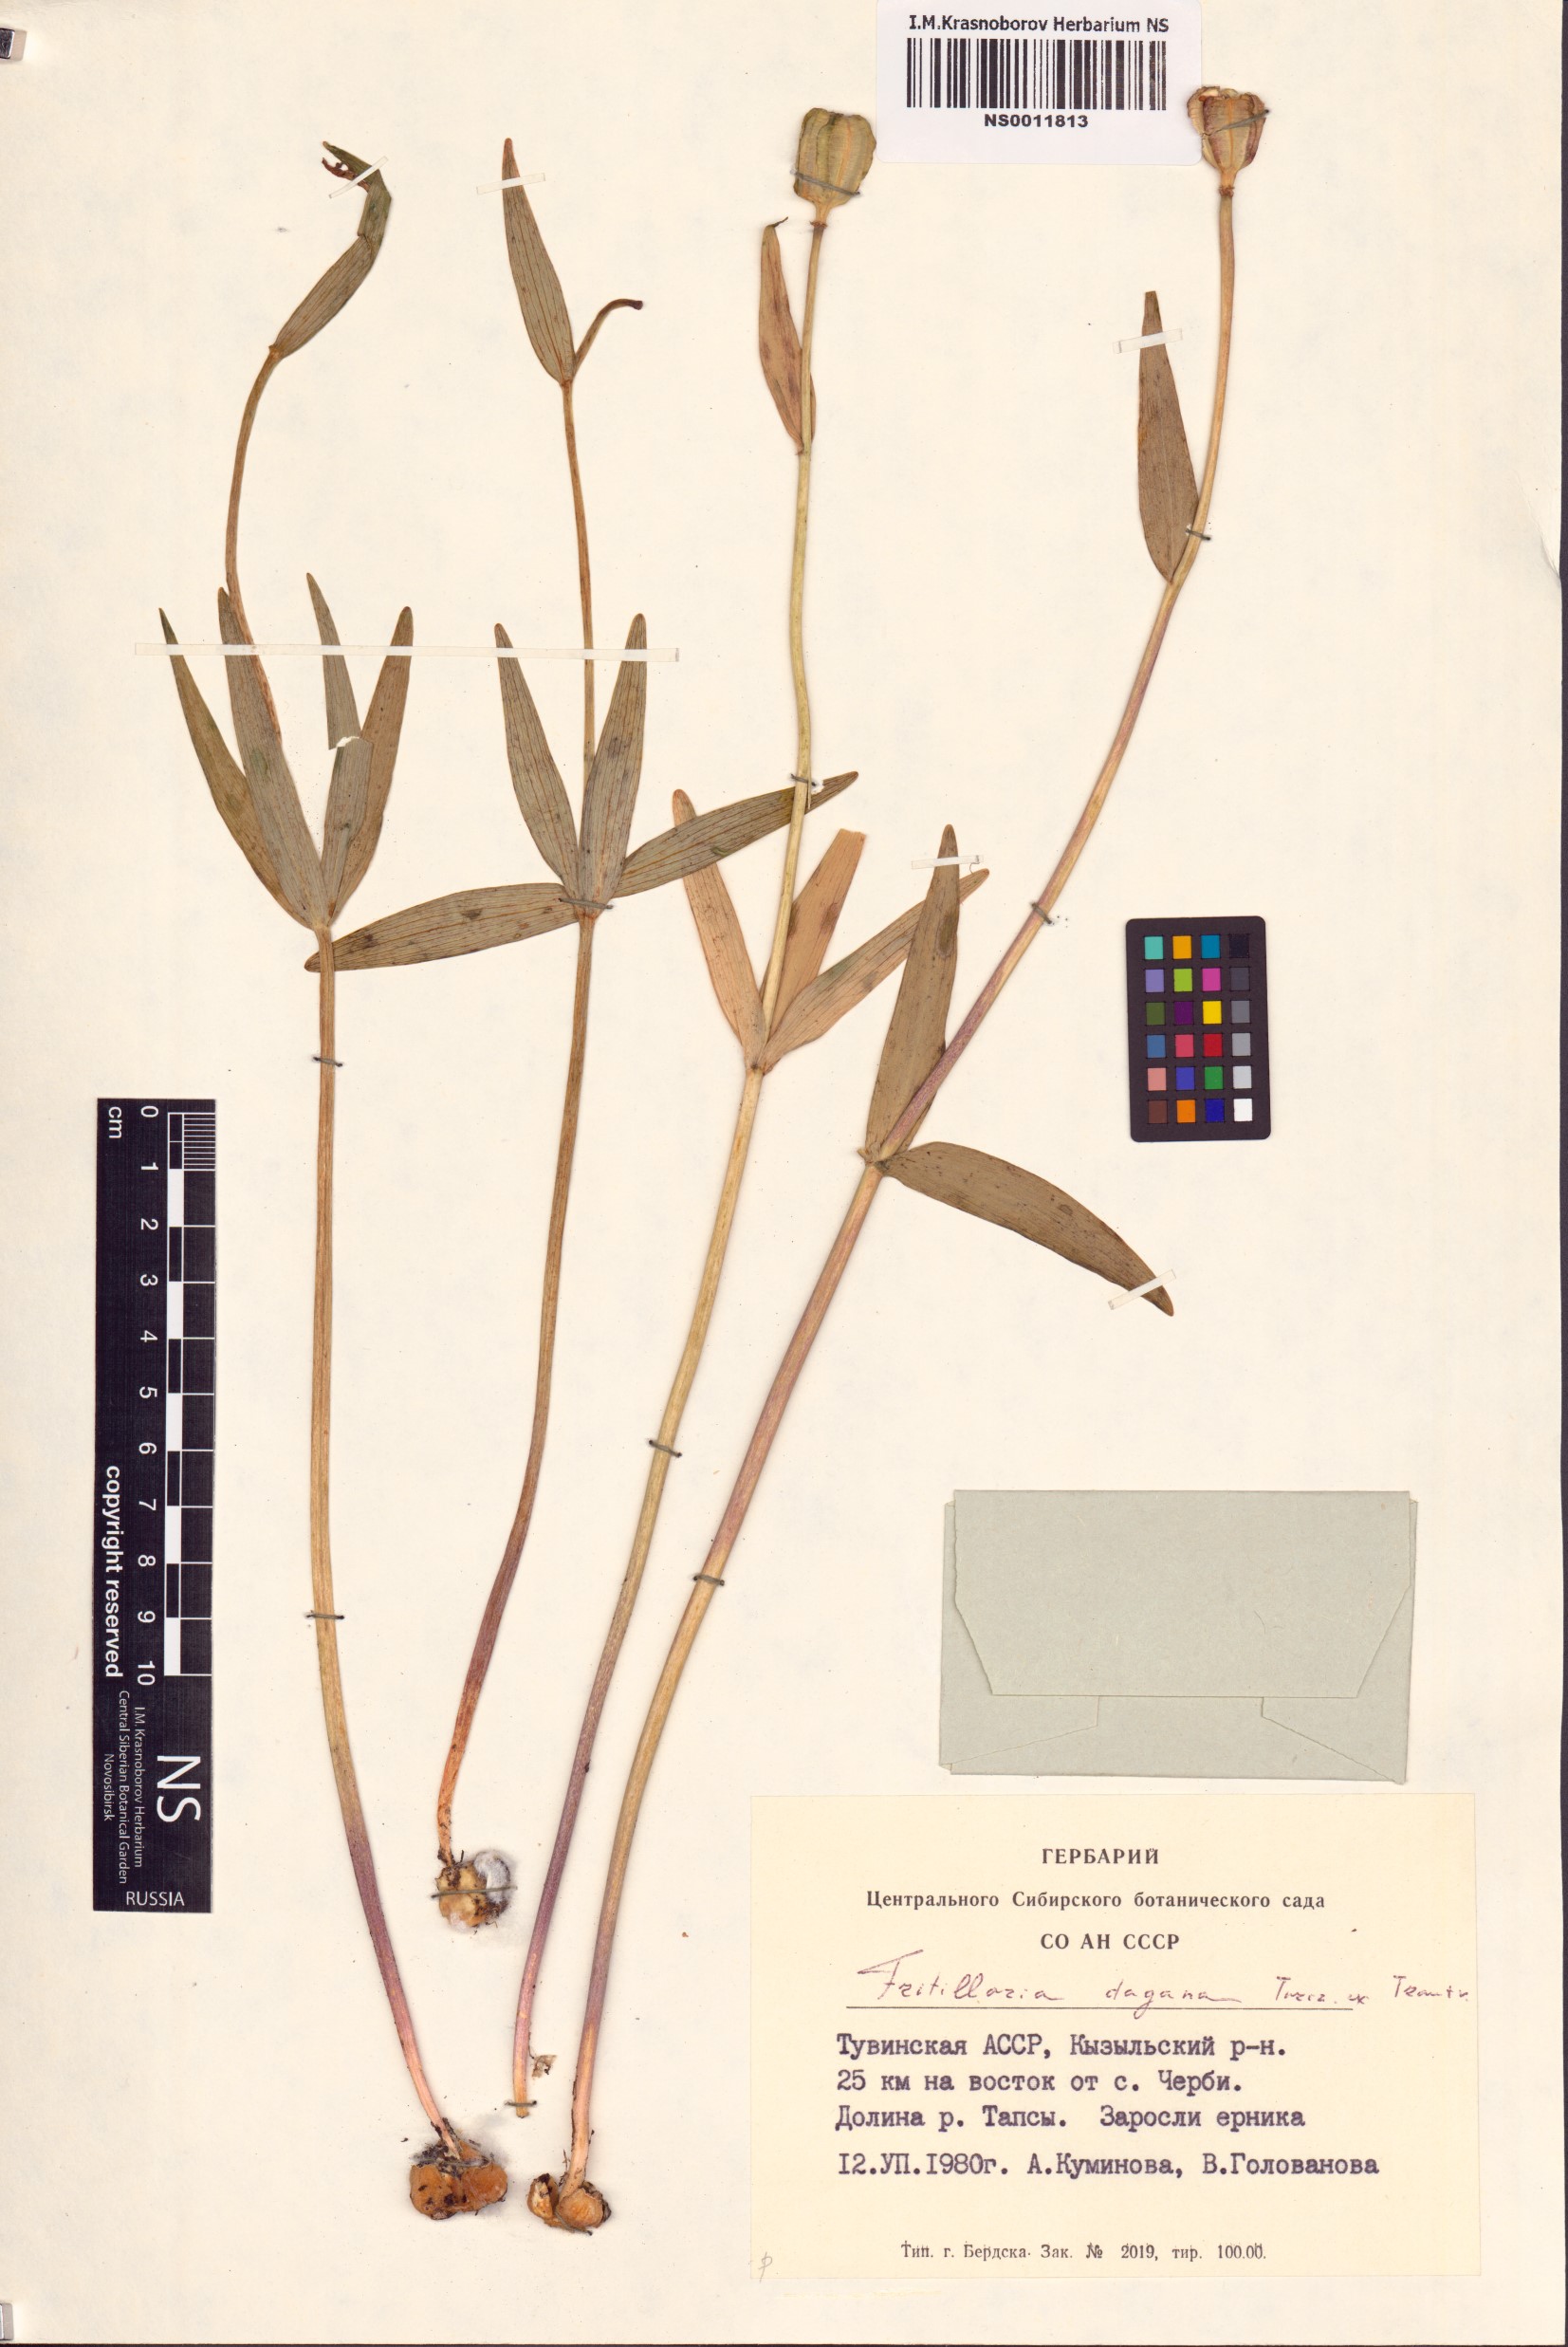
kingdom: Plantae
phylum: Tracheophyta
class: Liliopsida
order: Liliales
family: Liliaceae
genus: Fritillaria
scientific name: Fritillaria dagana
